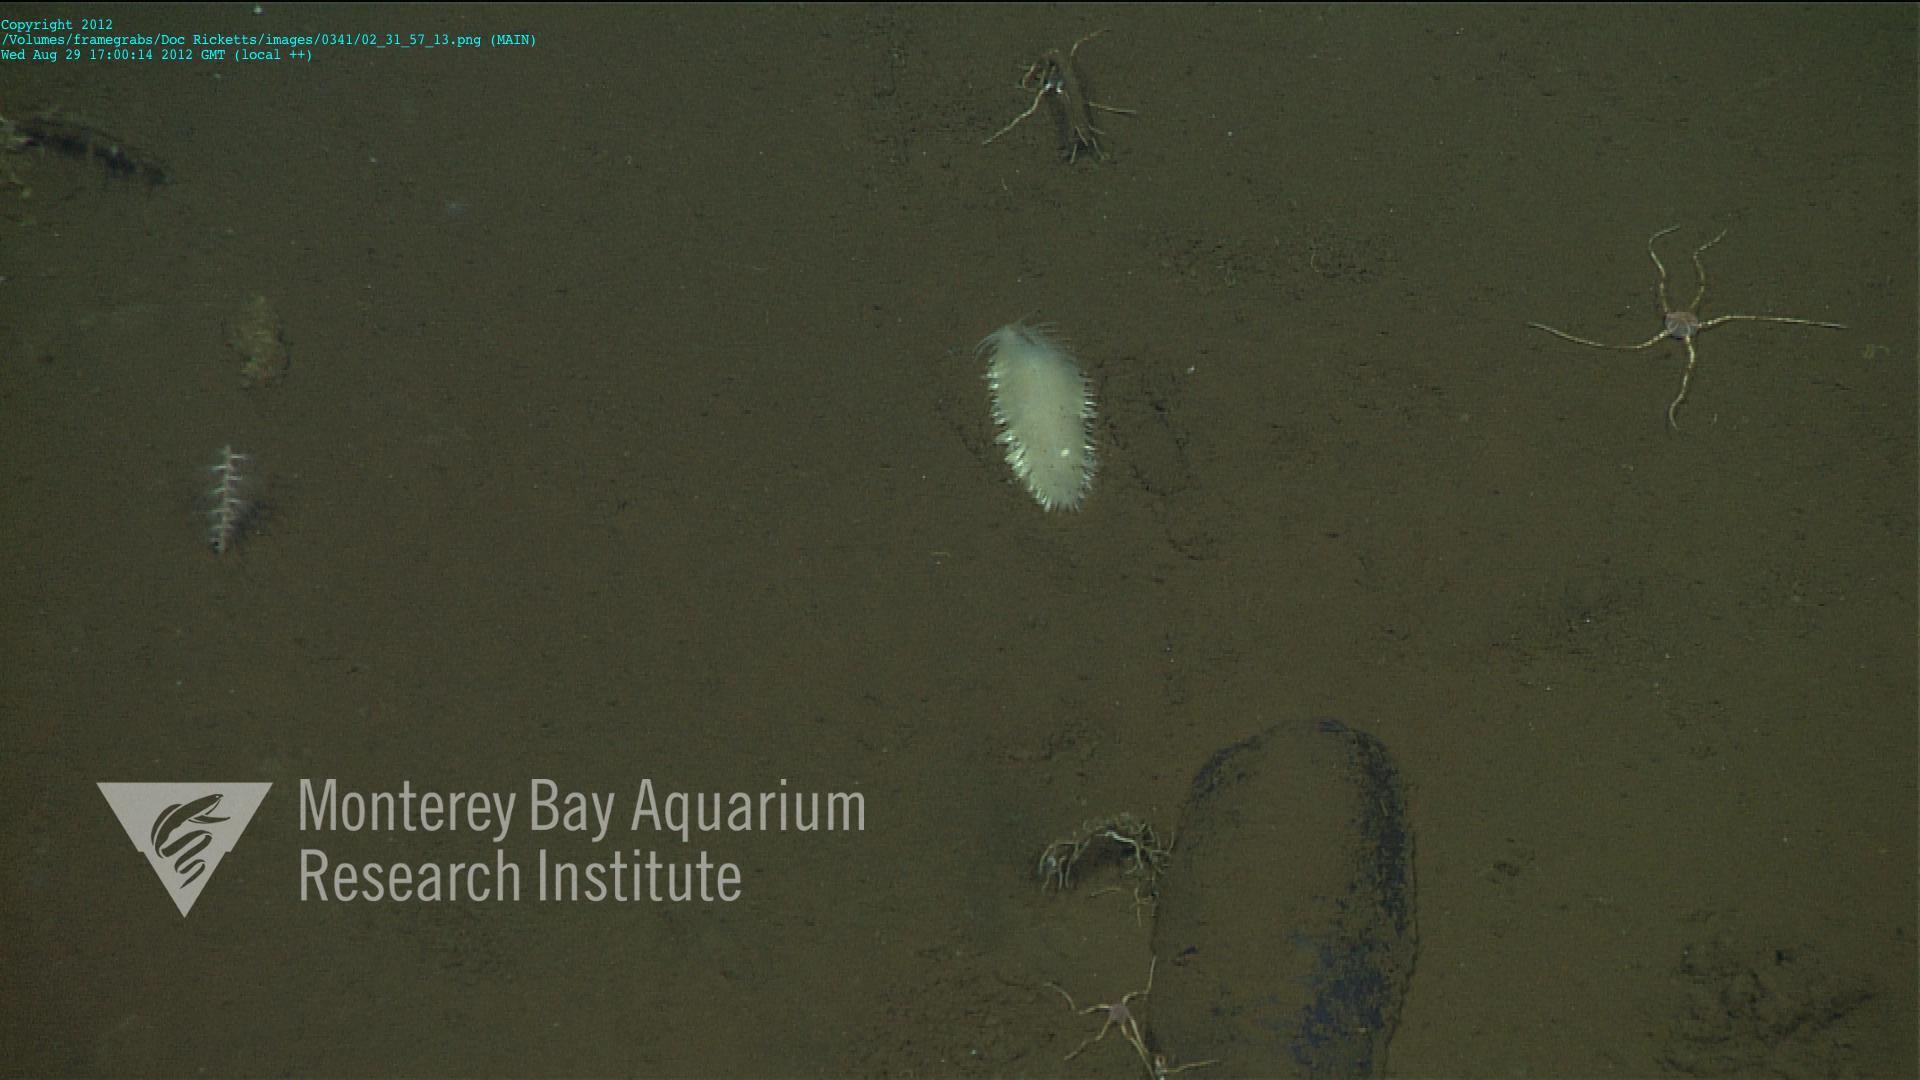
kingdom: Animalia
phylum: Cnidaria
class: Anthozoa
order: Scleralcyonacea
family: Kophobelemnidae
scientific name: Kophobelemnidae
